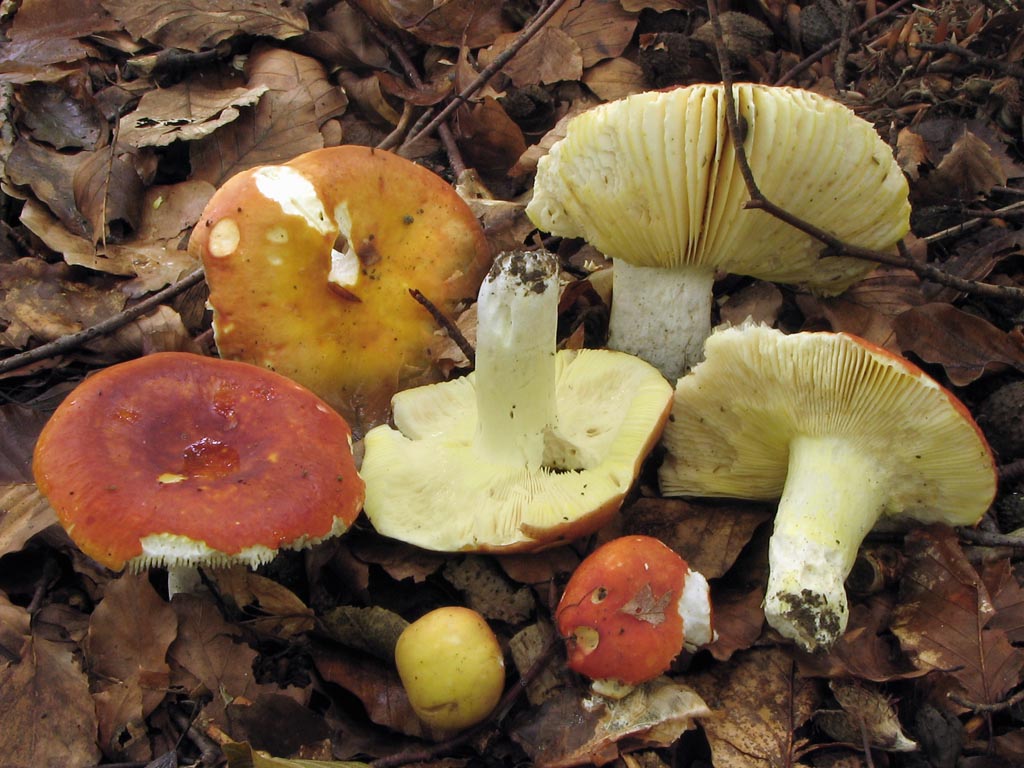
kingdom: Fungi
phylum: Basidiomycota
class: Agaricomycetes
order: Russulales
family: Russulaceae
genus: Russula
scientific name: Russula aurea
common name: gylden skørhat
